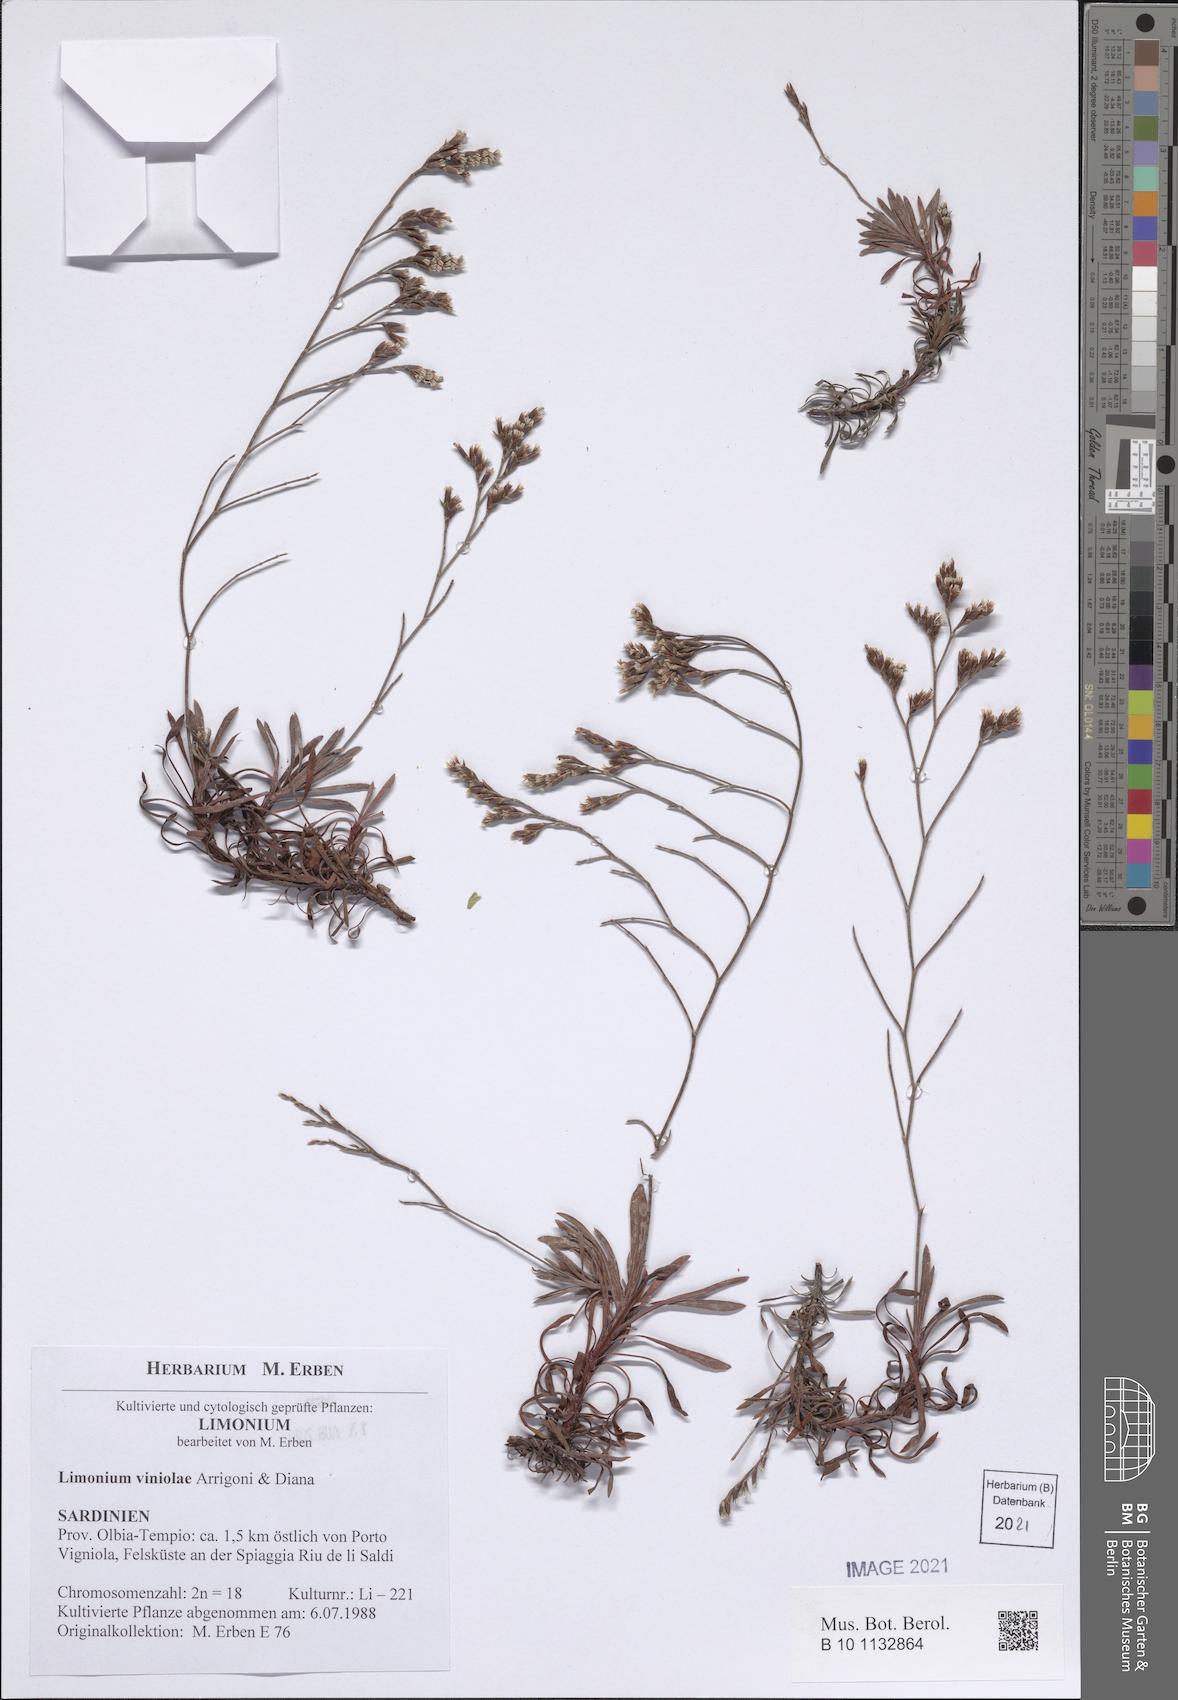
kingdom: Plantae
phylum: Tracheophyta
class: Magnoliopsida
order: Caryophyllales
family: Plumbaginaceae
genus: Limonium
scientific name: Limonium viniolae
